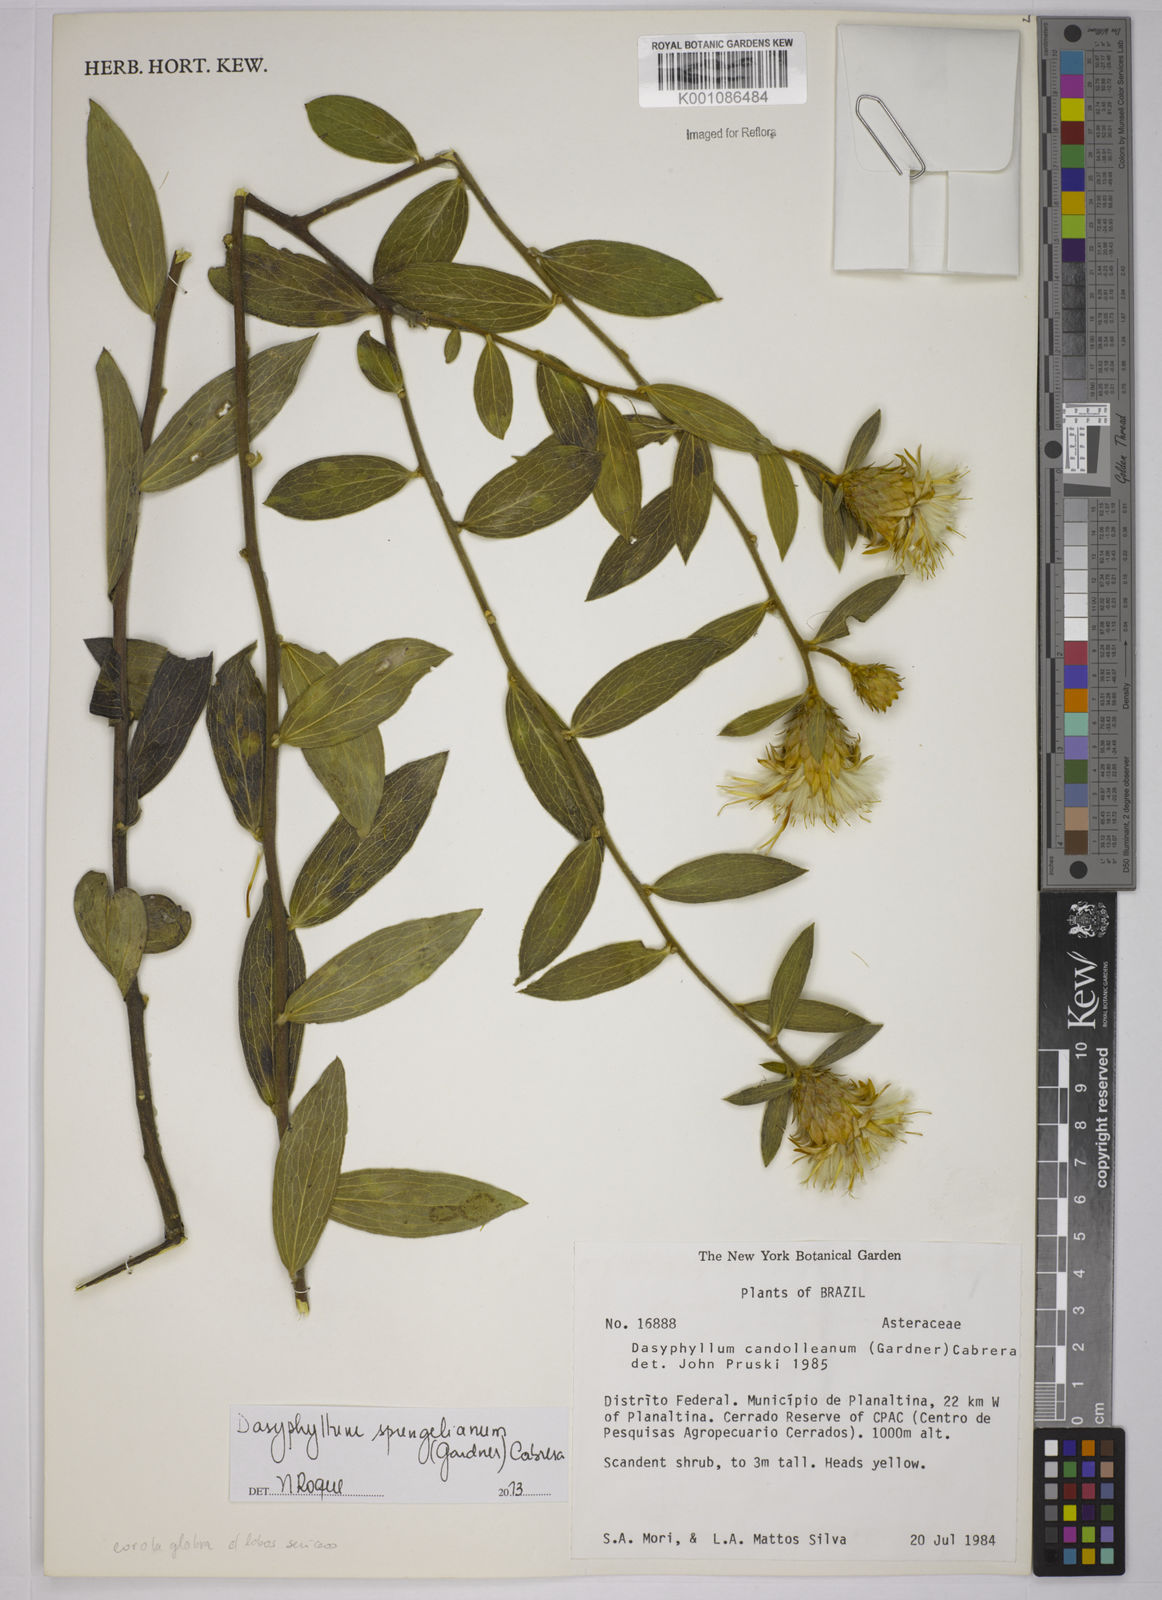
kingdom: Plantae
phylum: Tracheophyta
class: Magnoliopsida
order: Asterales
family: Asteraceae
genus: Dasyphyllum
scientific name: Dasyphyllum sprengelianum
